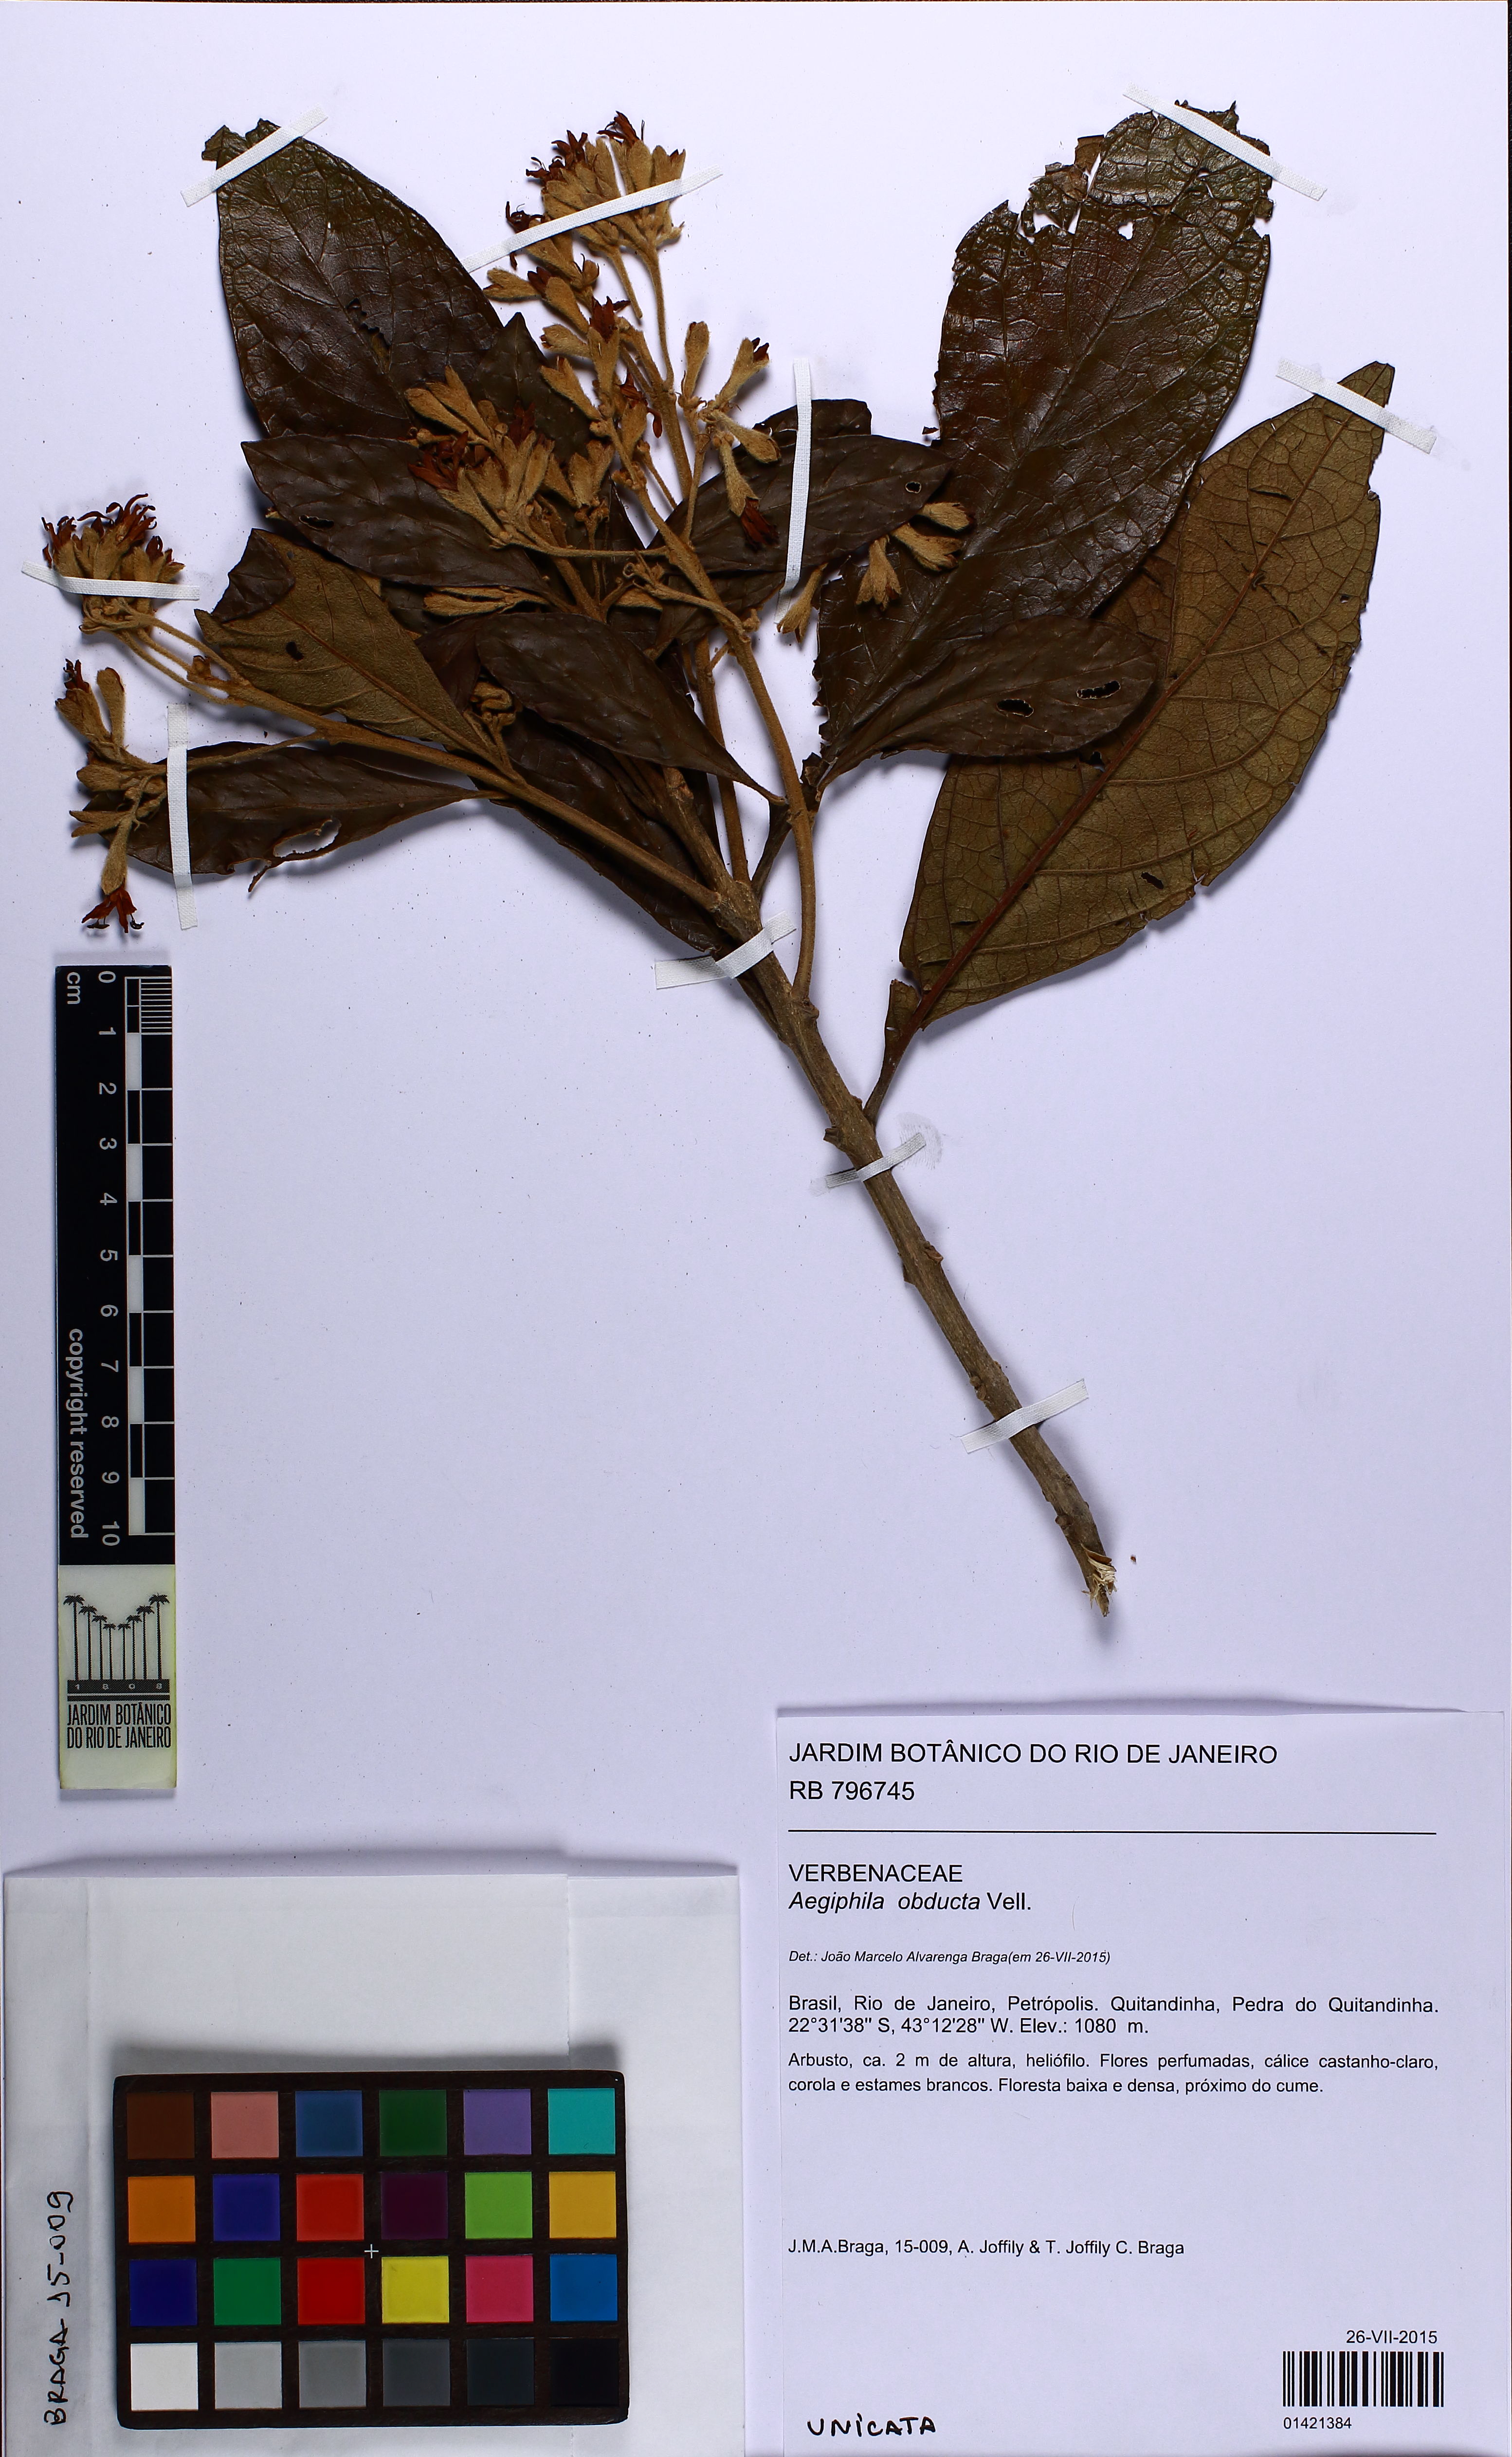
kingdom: Plantae
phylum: Tracheophyta
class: Magnoliopsida
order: Lamiales
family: Lamiaceae
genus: Aegiphila
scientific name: Aegiphila obducta
